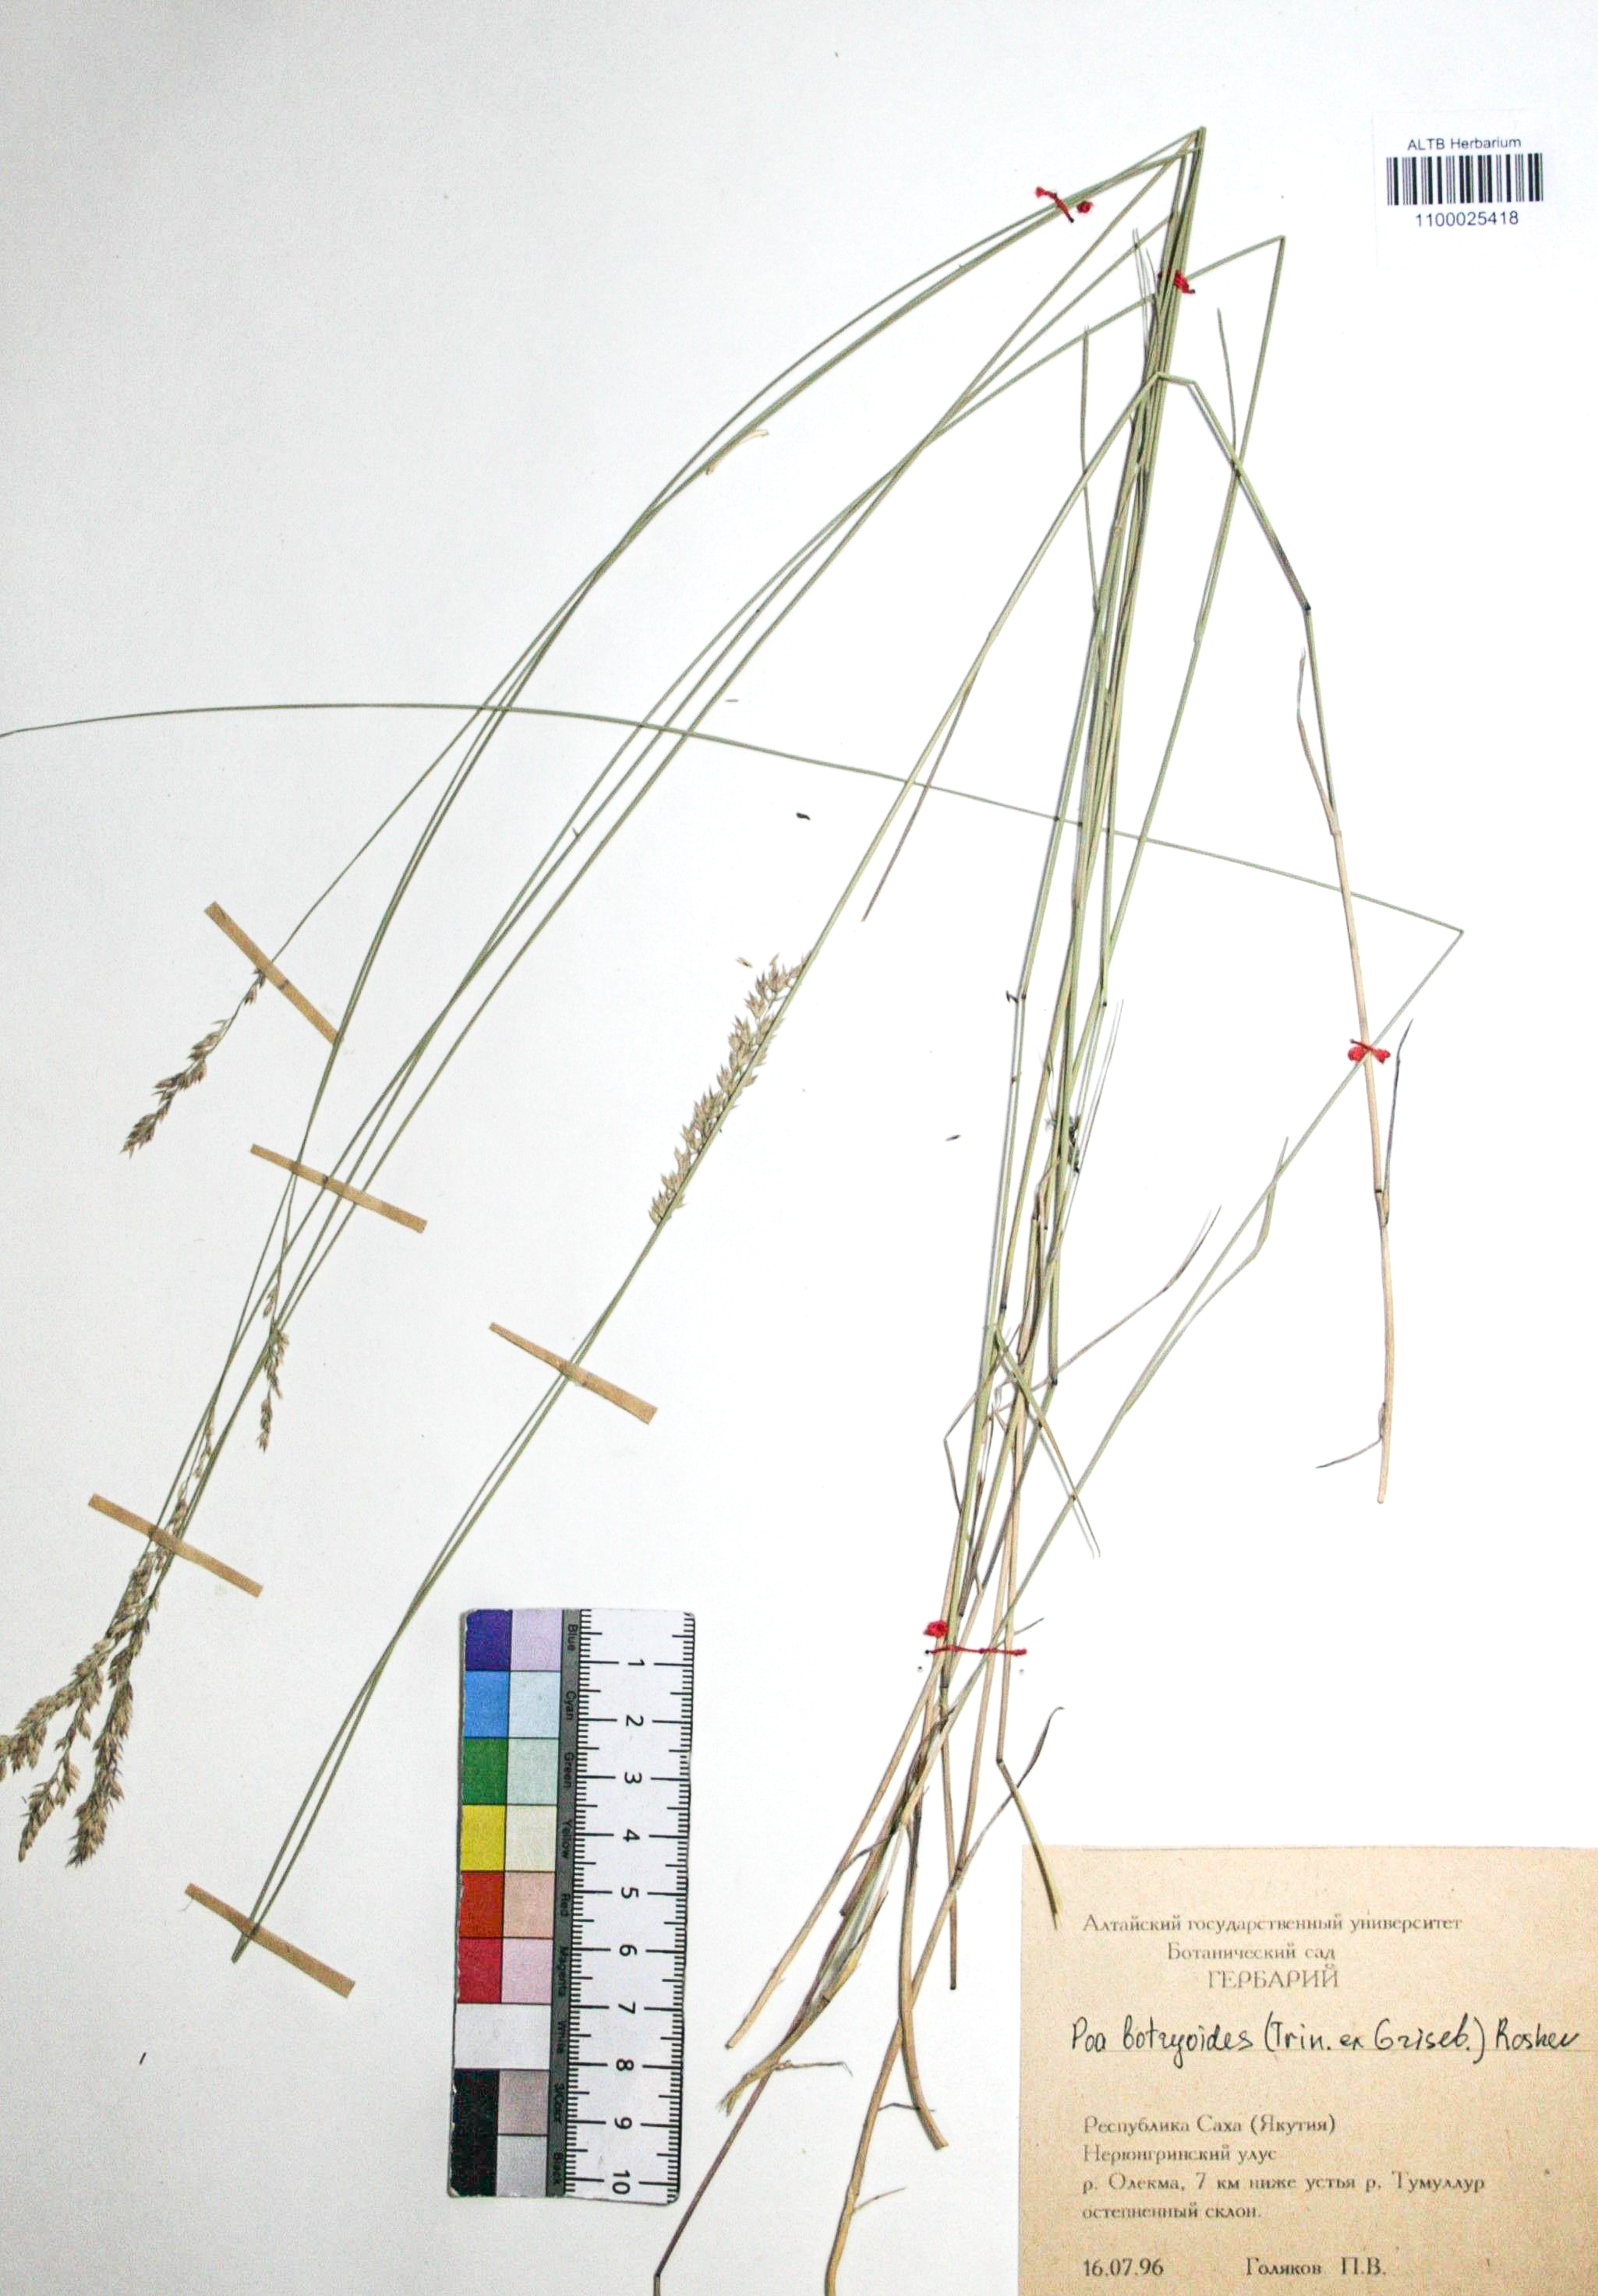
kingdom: Plantae
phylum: Tracheophyta
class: Liliopsida
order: Poales
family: Poaceae
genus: Poa
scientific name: Poa attenuata
